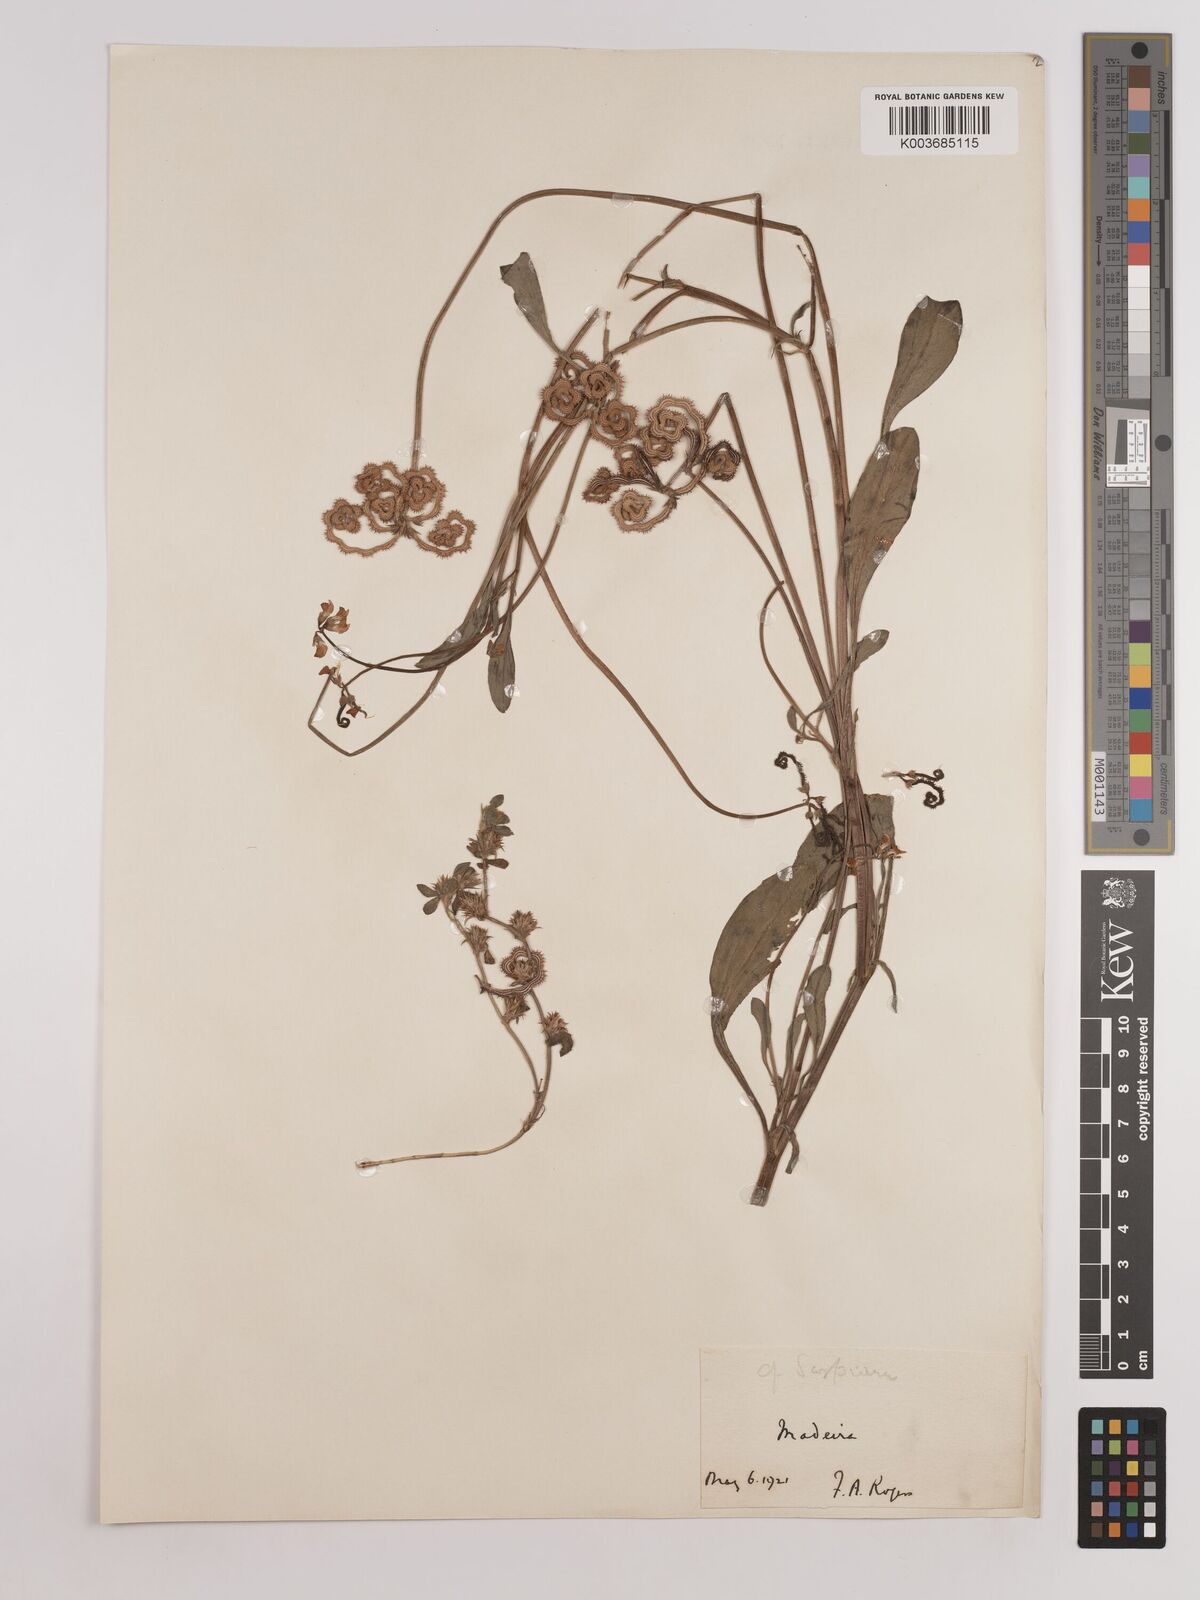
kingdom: Plantae
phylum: Tracheophyta
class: Magnoliopsida
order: Fabales
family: Fabaceae
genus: Scorpiurus
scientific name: Scorpiurus muricatus
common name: Caterpillar-plant
